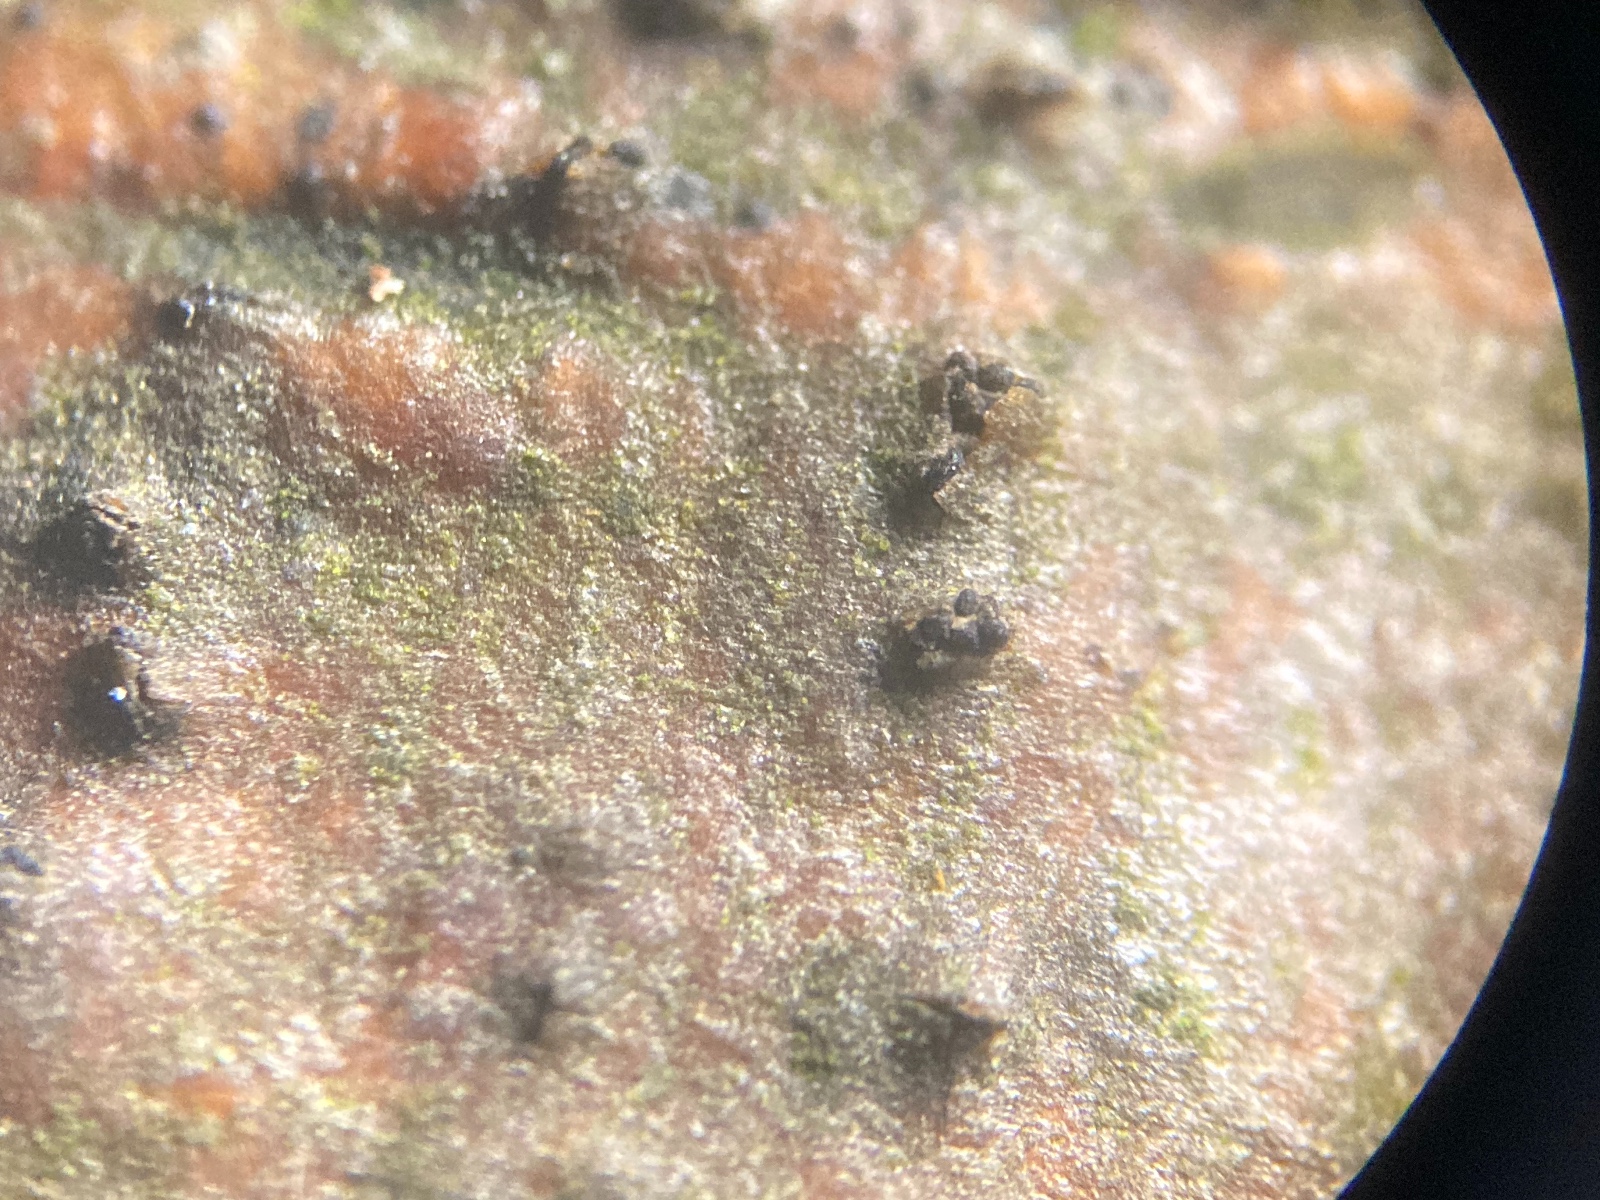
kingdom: Fungi
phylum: Ascomycota
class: Sordariomycetes
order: Diaporthales
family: Gnomoniaceae
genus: Alnecium
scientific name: Alnecium auctum
